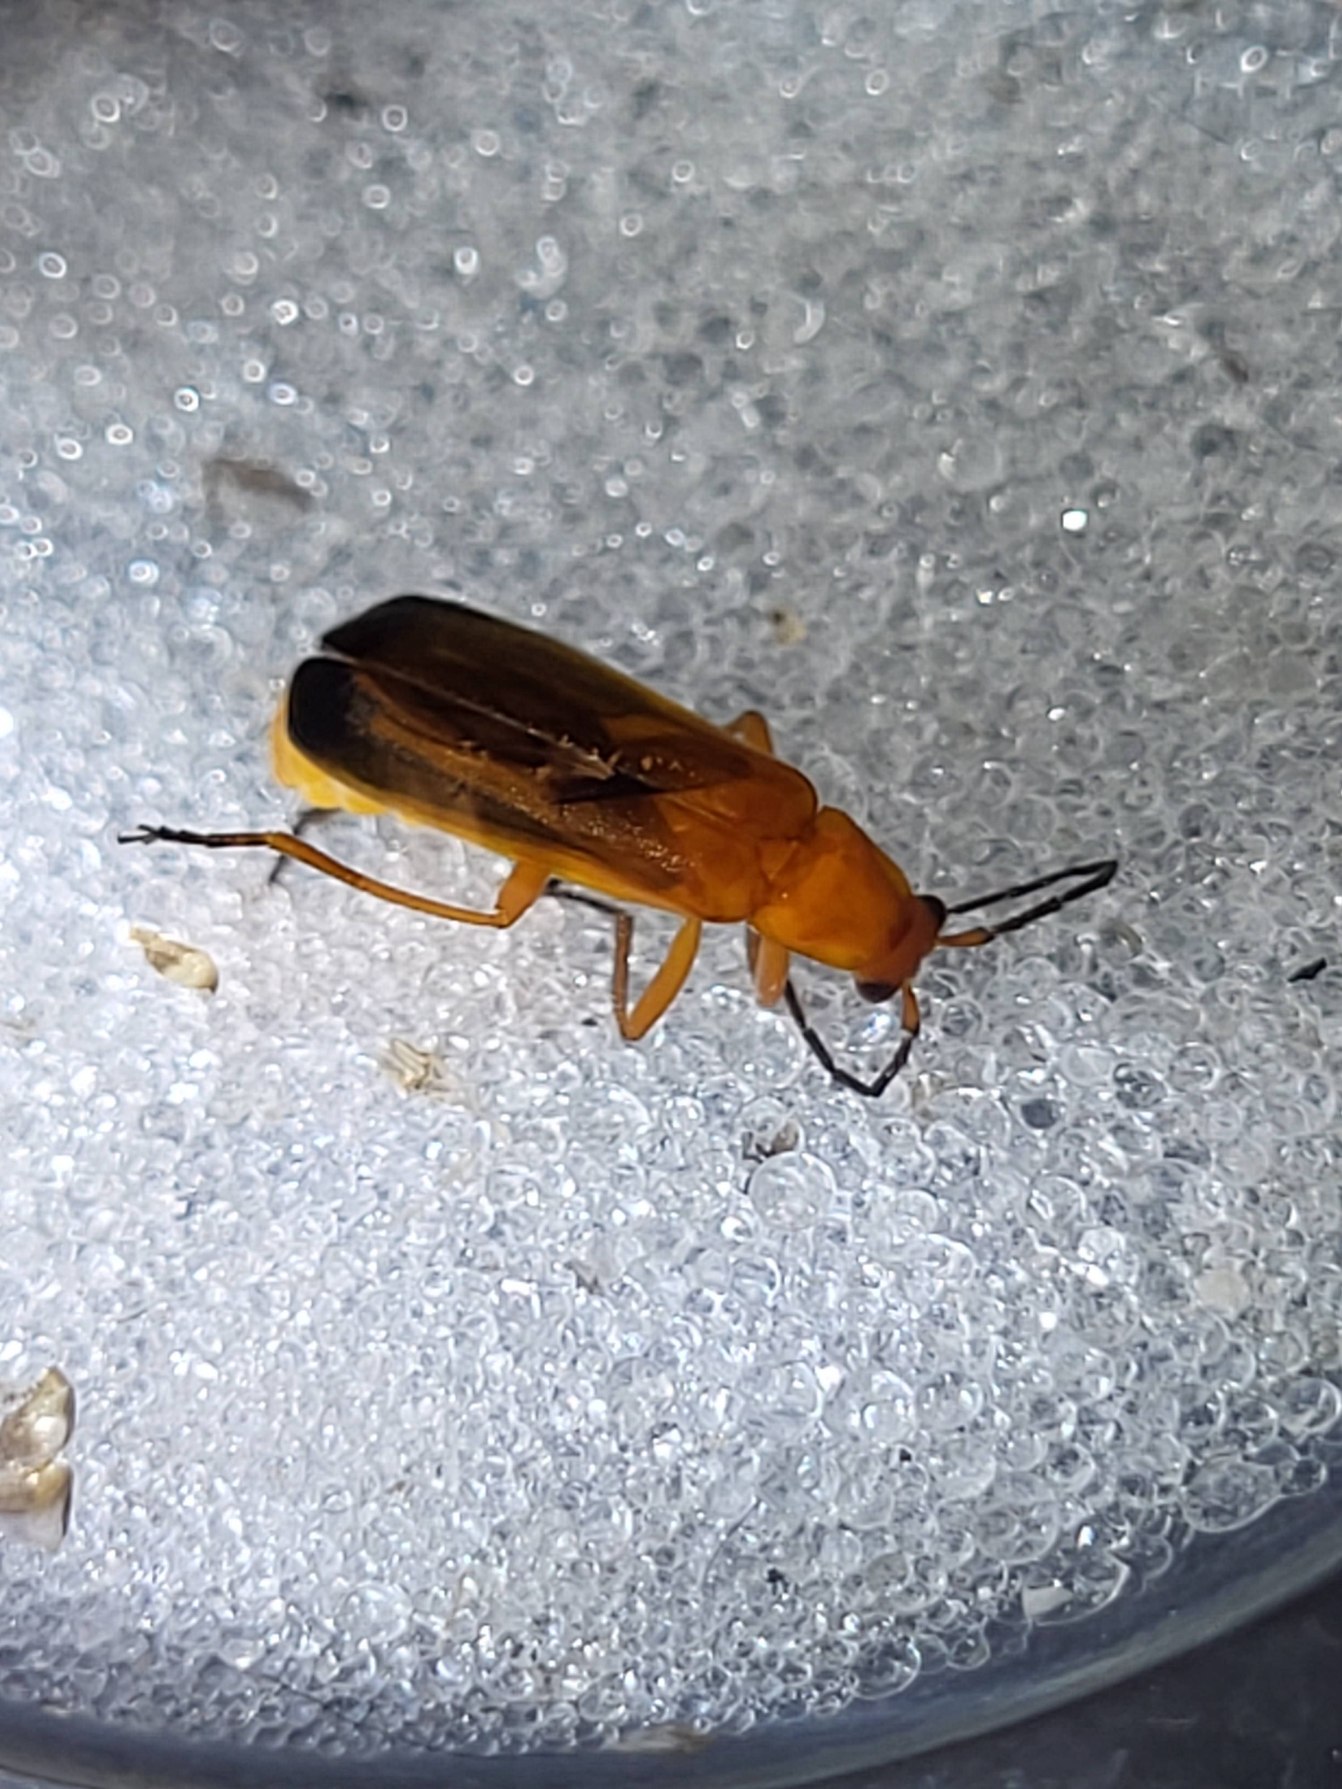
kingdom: Animalia
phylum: Arthropoda
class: Insecta
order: Coleoptera
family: Cantharidae
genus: Rhagonycha
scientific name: Rhagonycha fulva
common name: Præstebille
